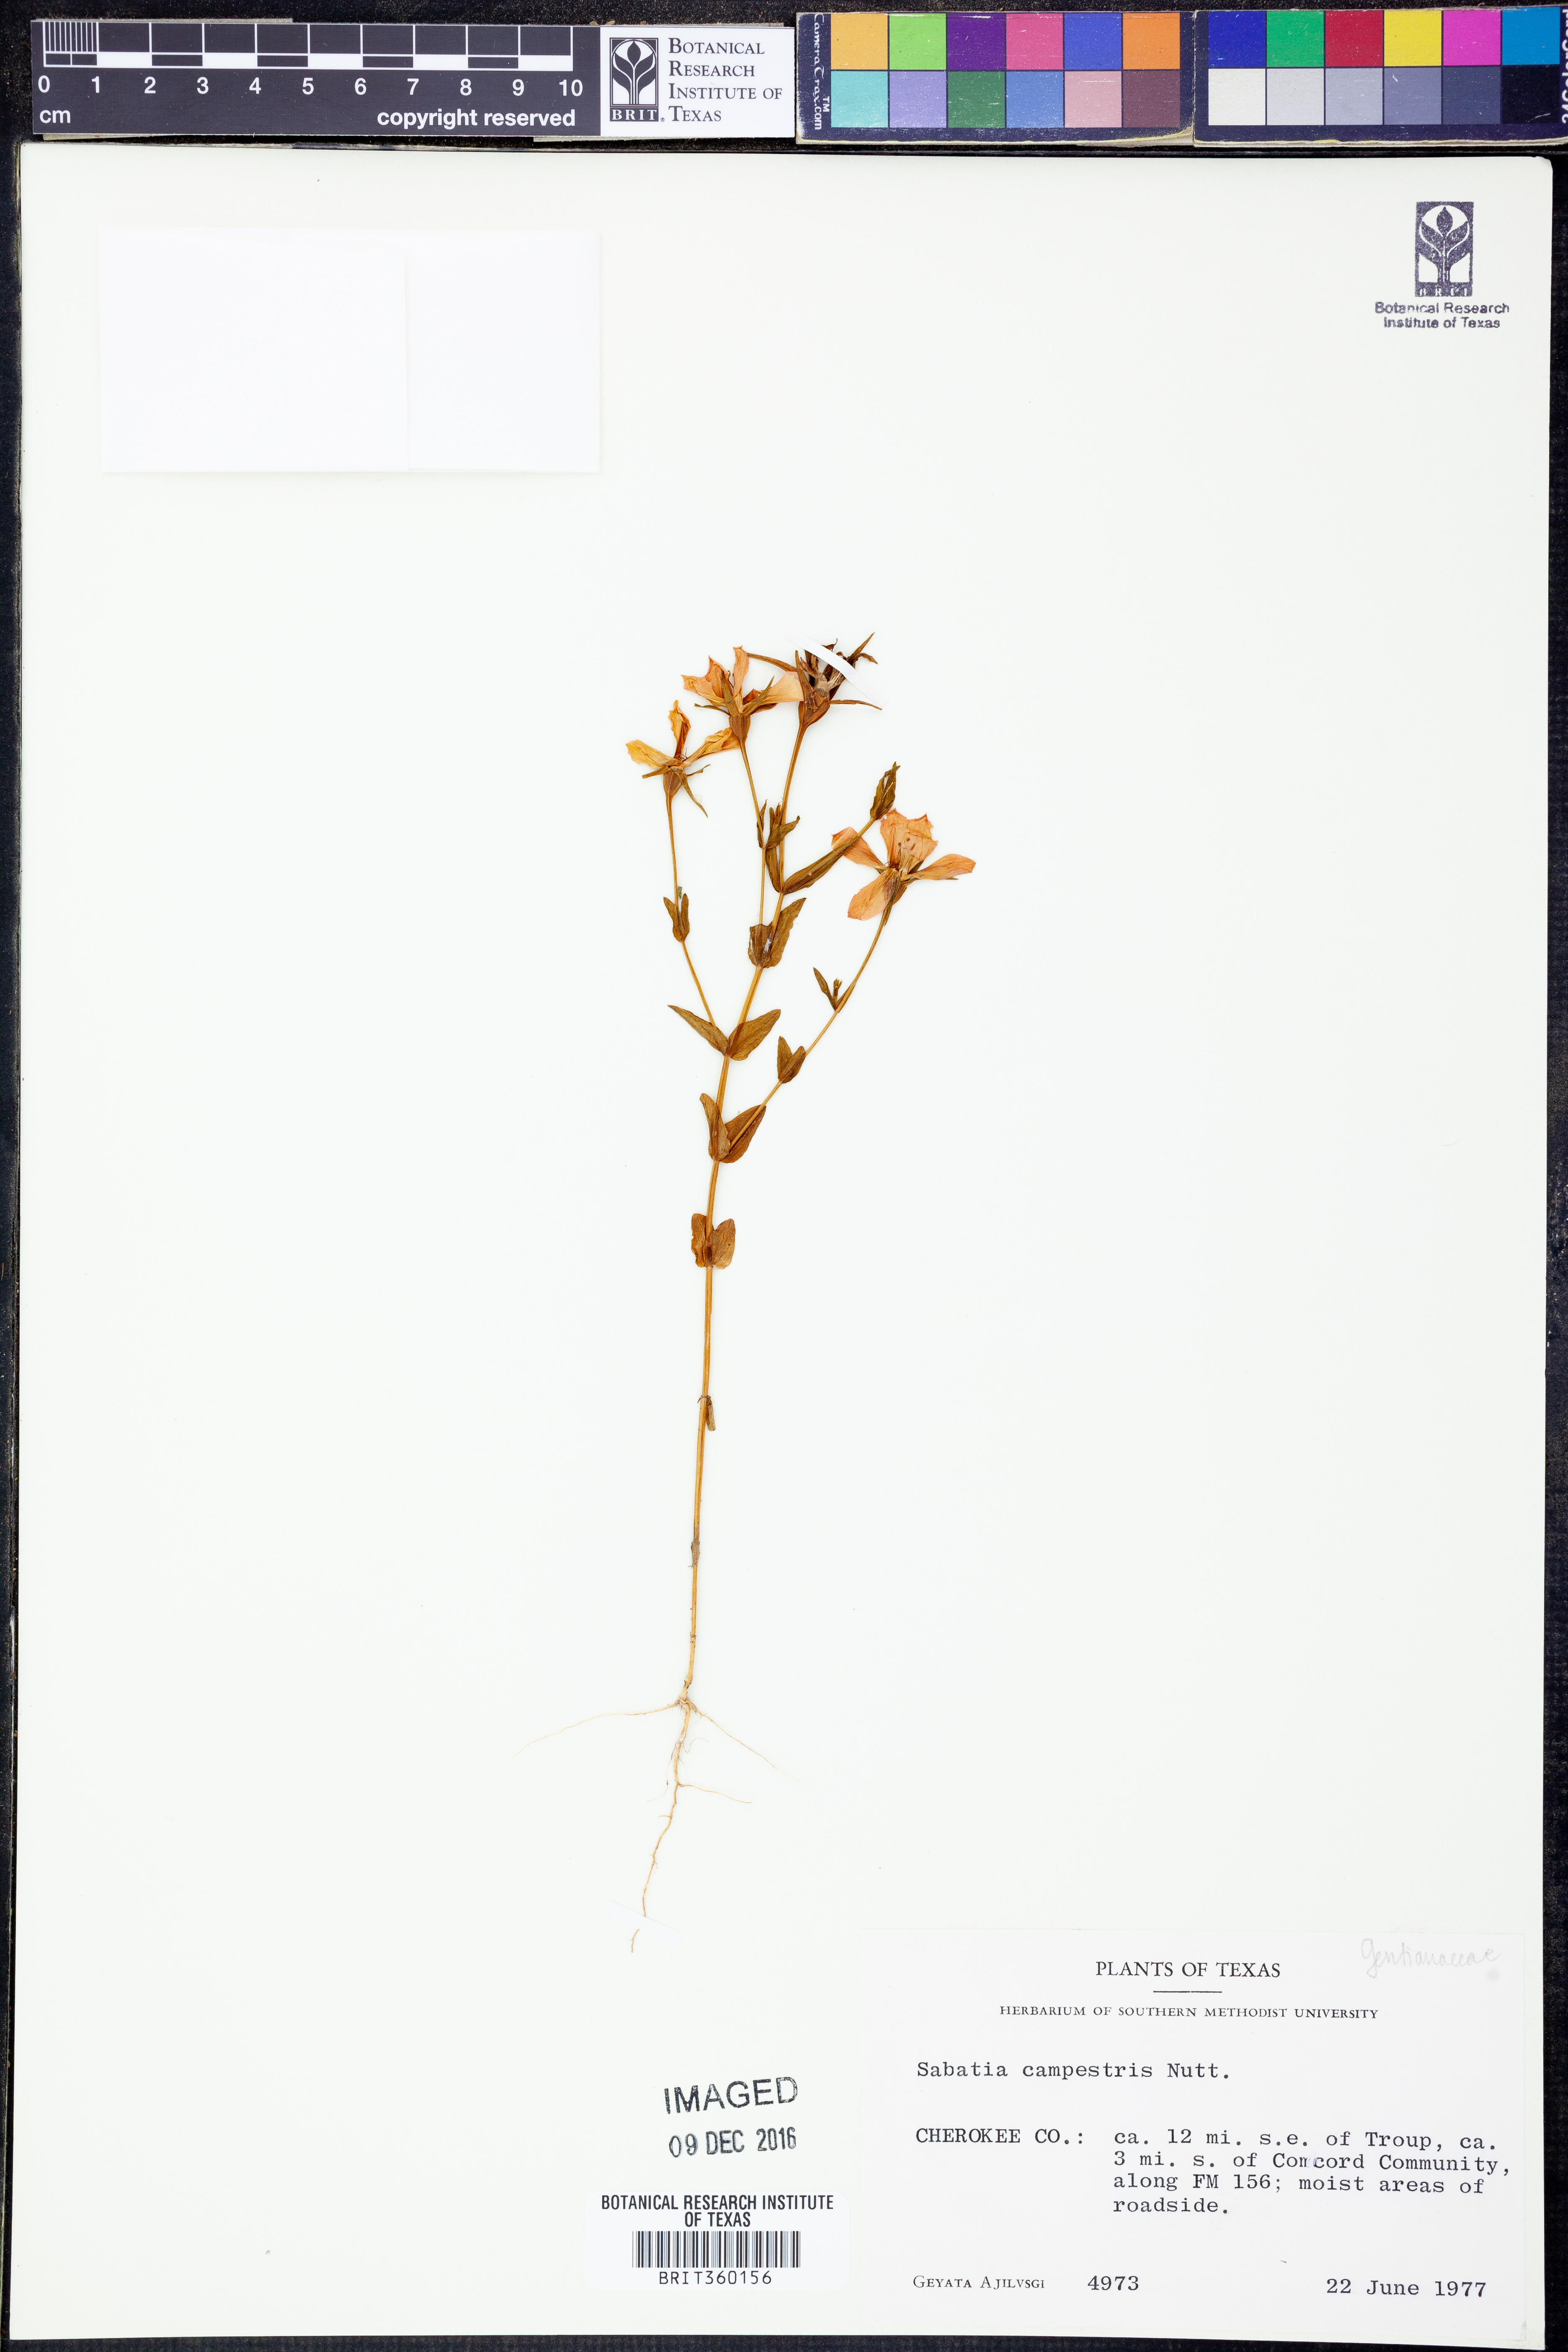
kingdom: Plantae
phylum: Tracheophyta
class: Magnoliopsida
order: Gentianales
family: Gentianaceae
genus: Sabatia
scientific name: Sabatia campestris
